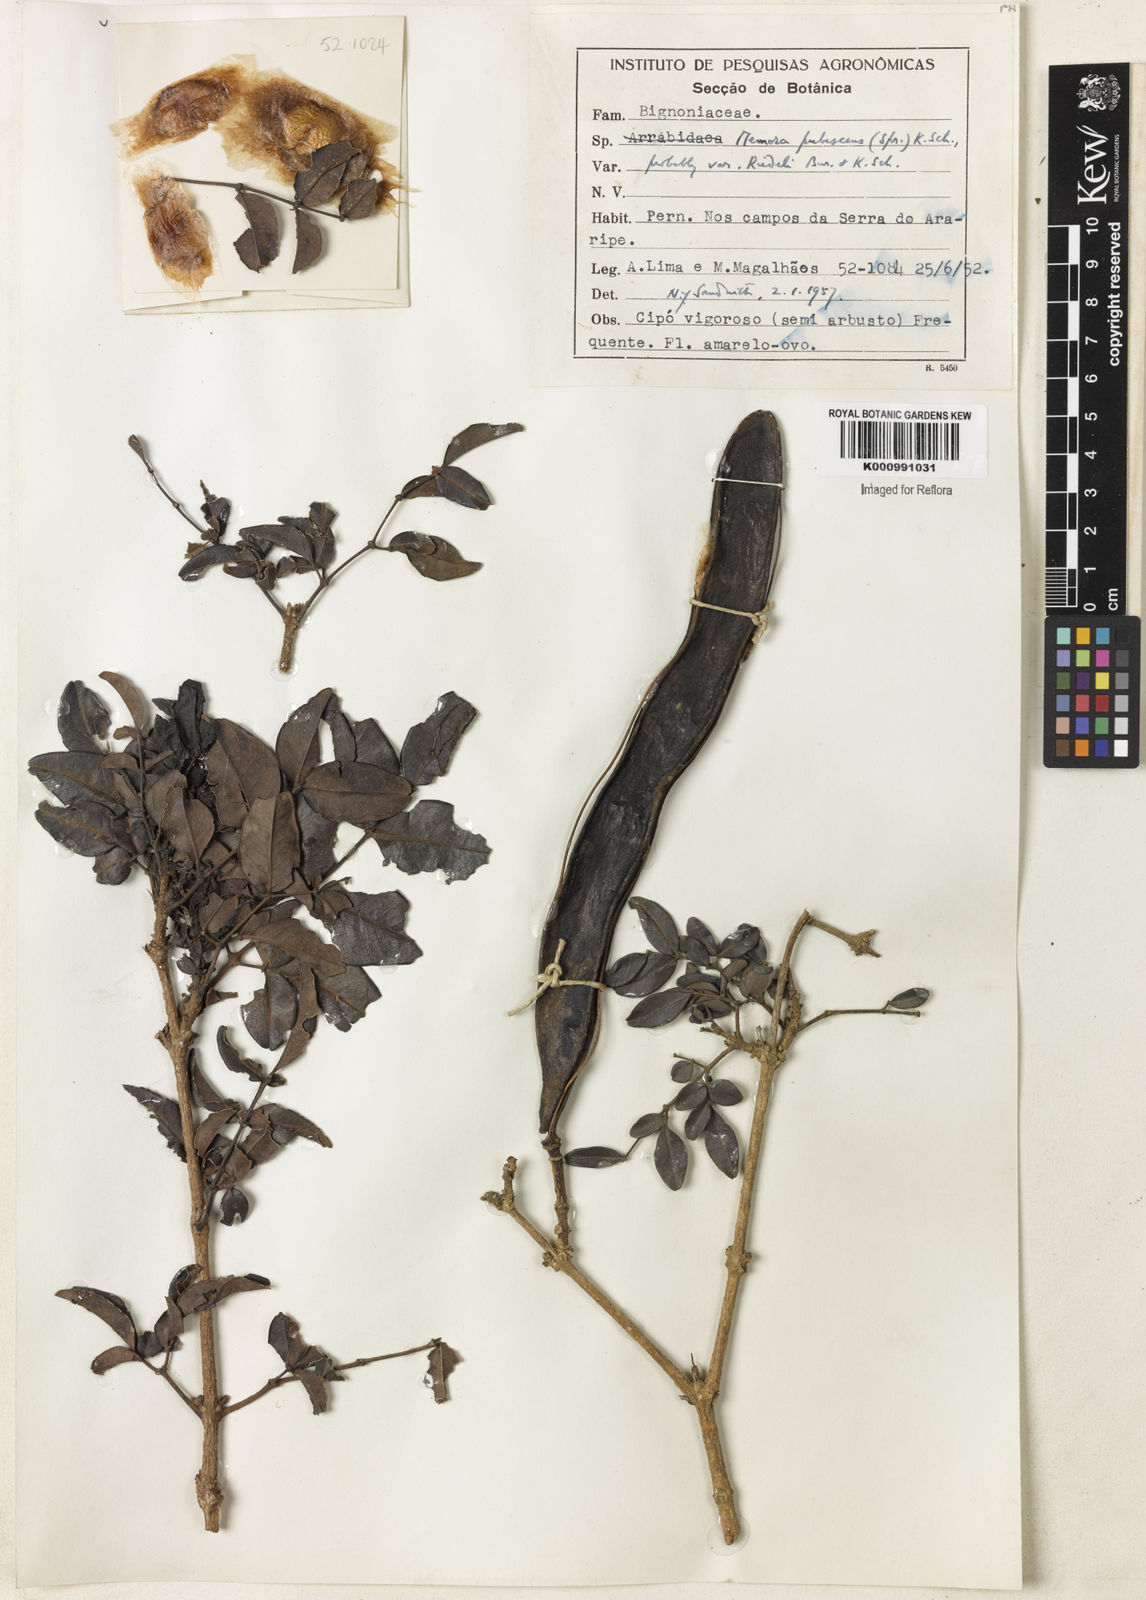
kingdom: Plantae
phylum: Tracheophyta
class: Magnoliopsida
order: Lamiales
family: Bignoniaceae
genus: Adenocalymma
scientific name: Adenocalymma pubescens
